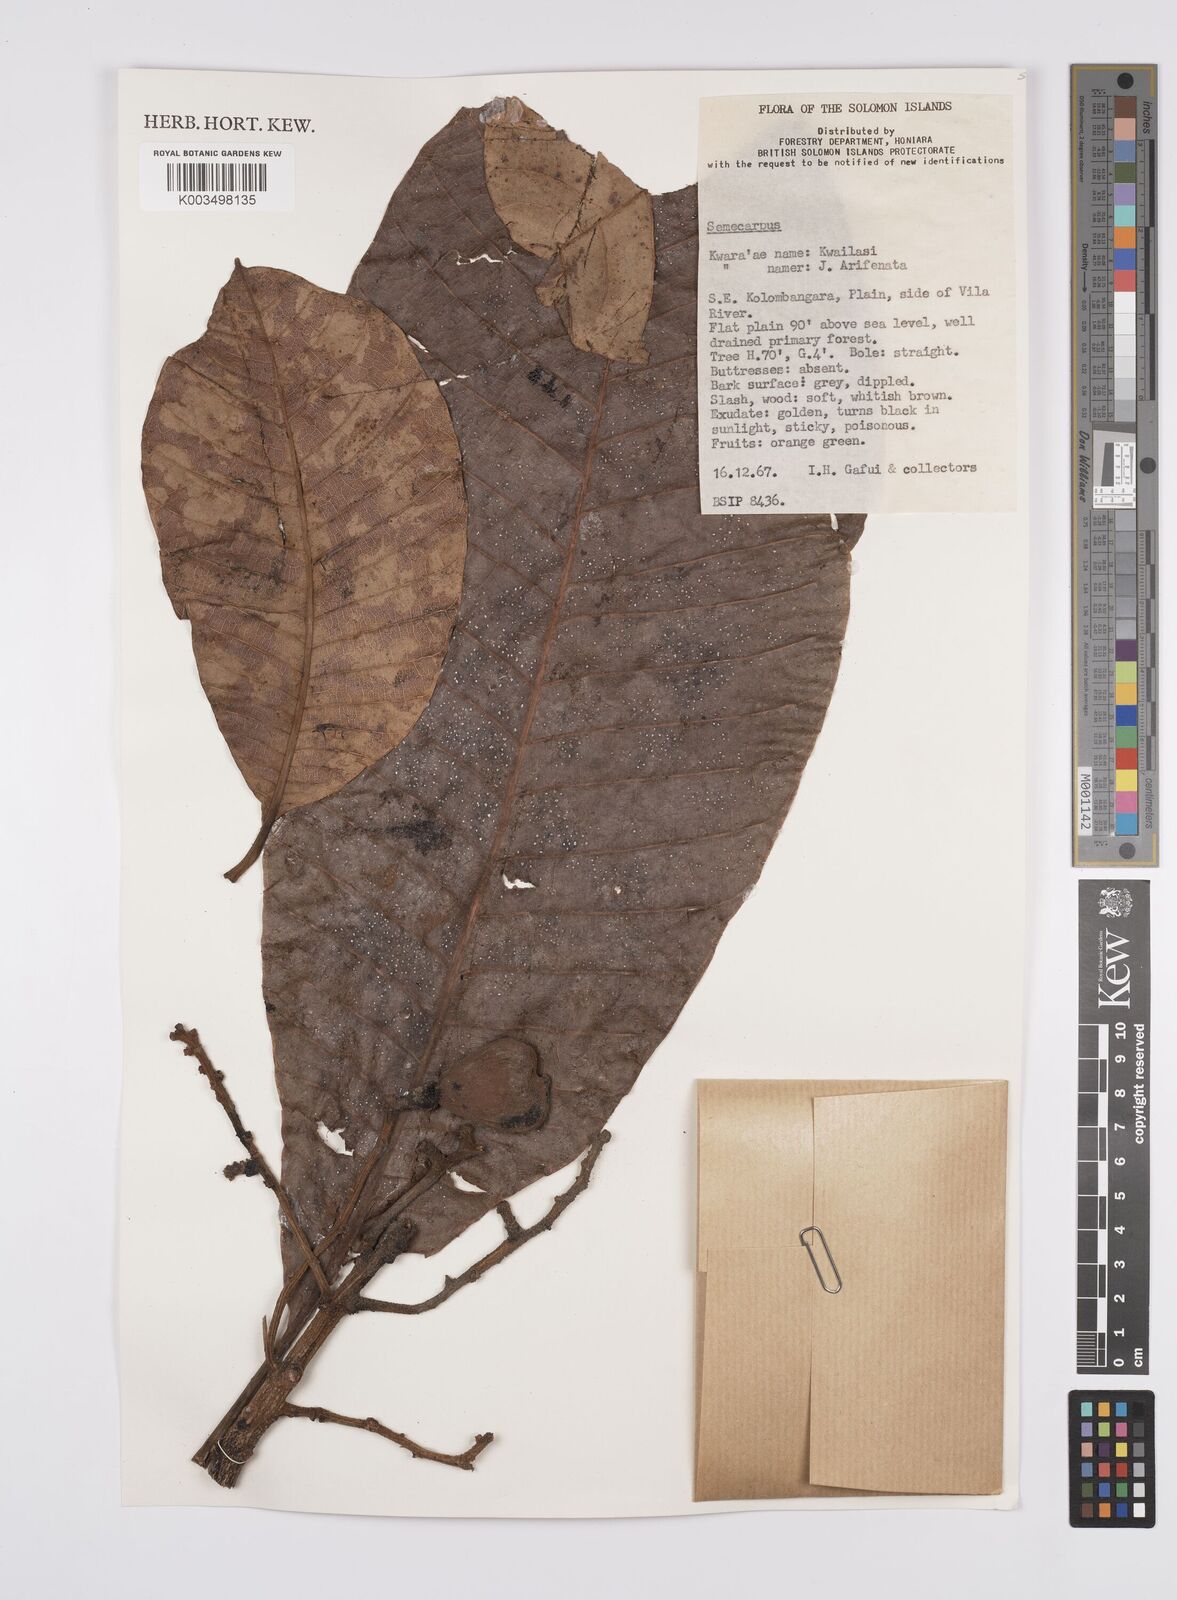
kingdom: Plantae
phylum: Tracheophyta
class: Magnoliopsida
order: Sapindales
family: Anacardiaceae
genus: Semecarpus
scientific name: Semecarpus
